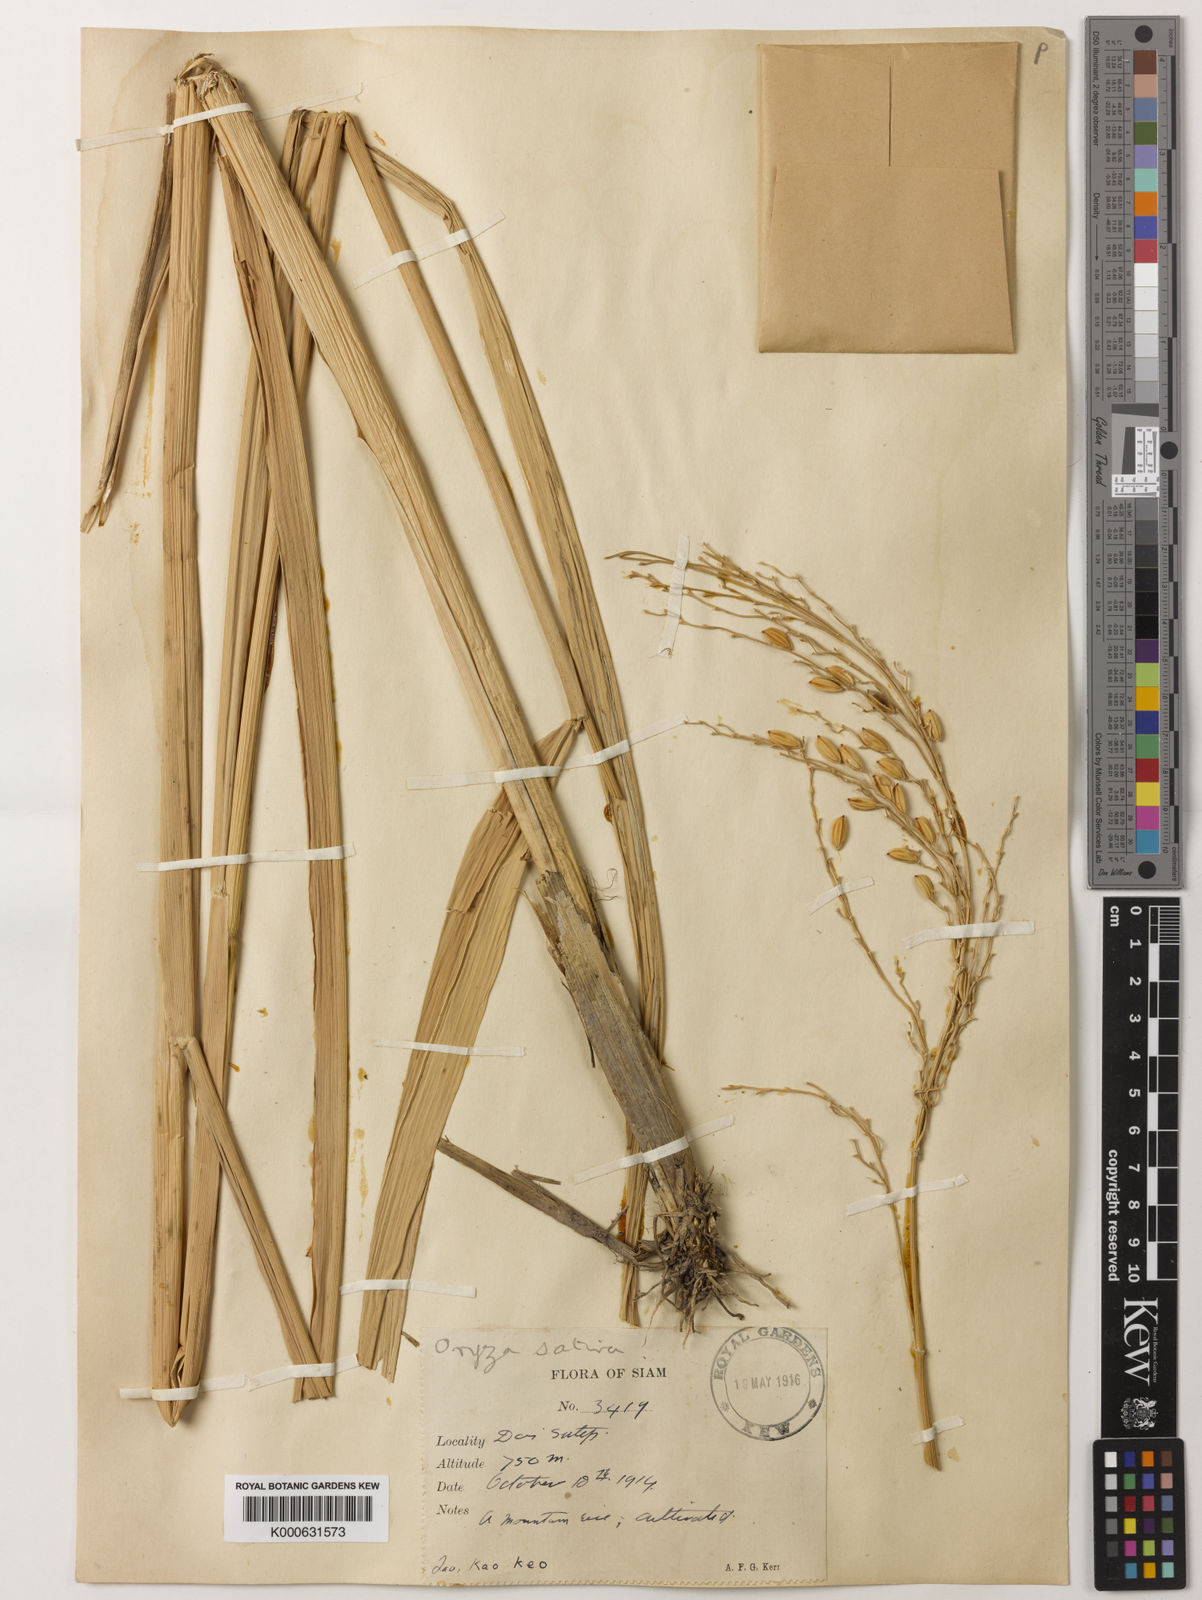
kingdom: Plantae
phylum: Tracheophyta
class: Liliopsida
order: Poales
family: Poaceae
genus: Oryza
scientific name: Oryza sativa
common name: Rice
